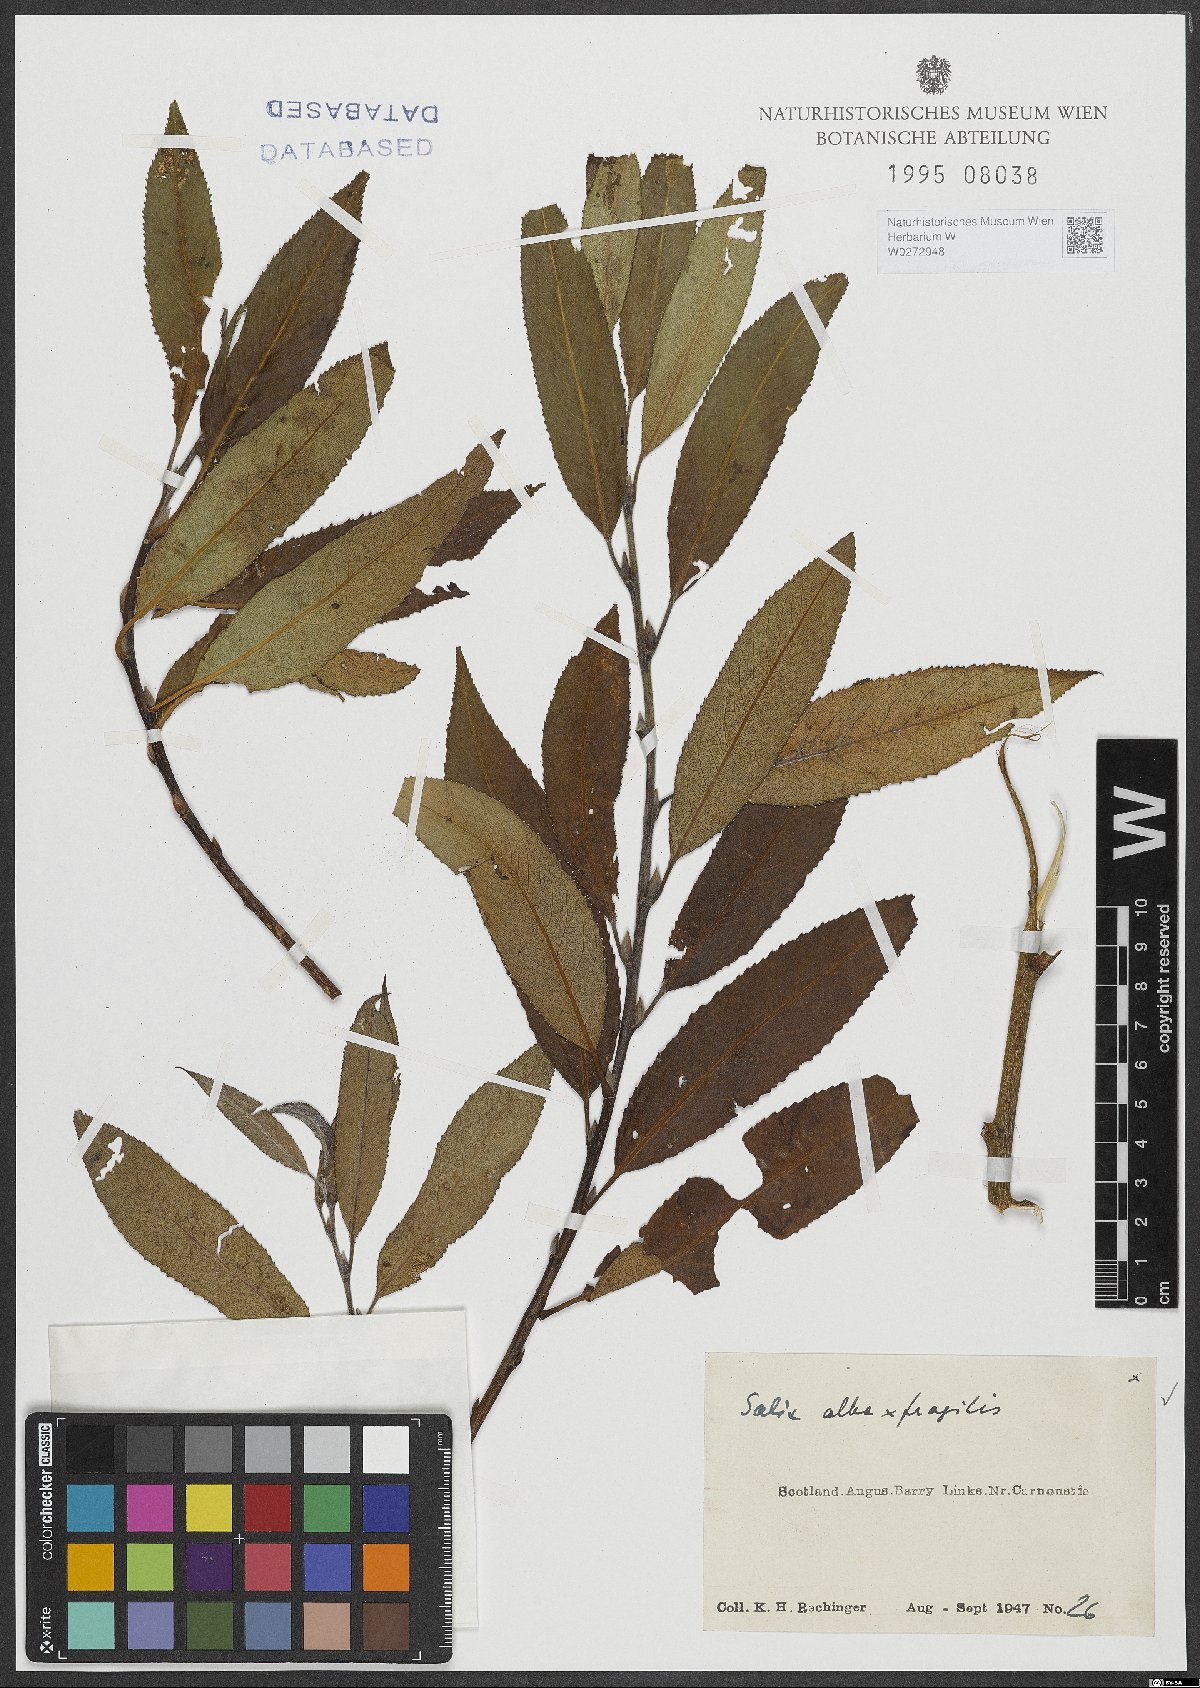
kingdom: Plantae
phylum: Tracheophyta
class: Magnoliopsida
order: Malpighiales
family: Salicaceae
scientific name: Salicaceae
